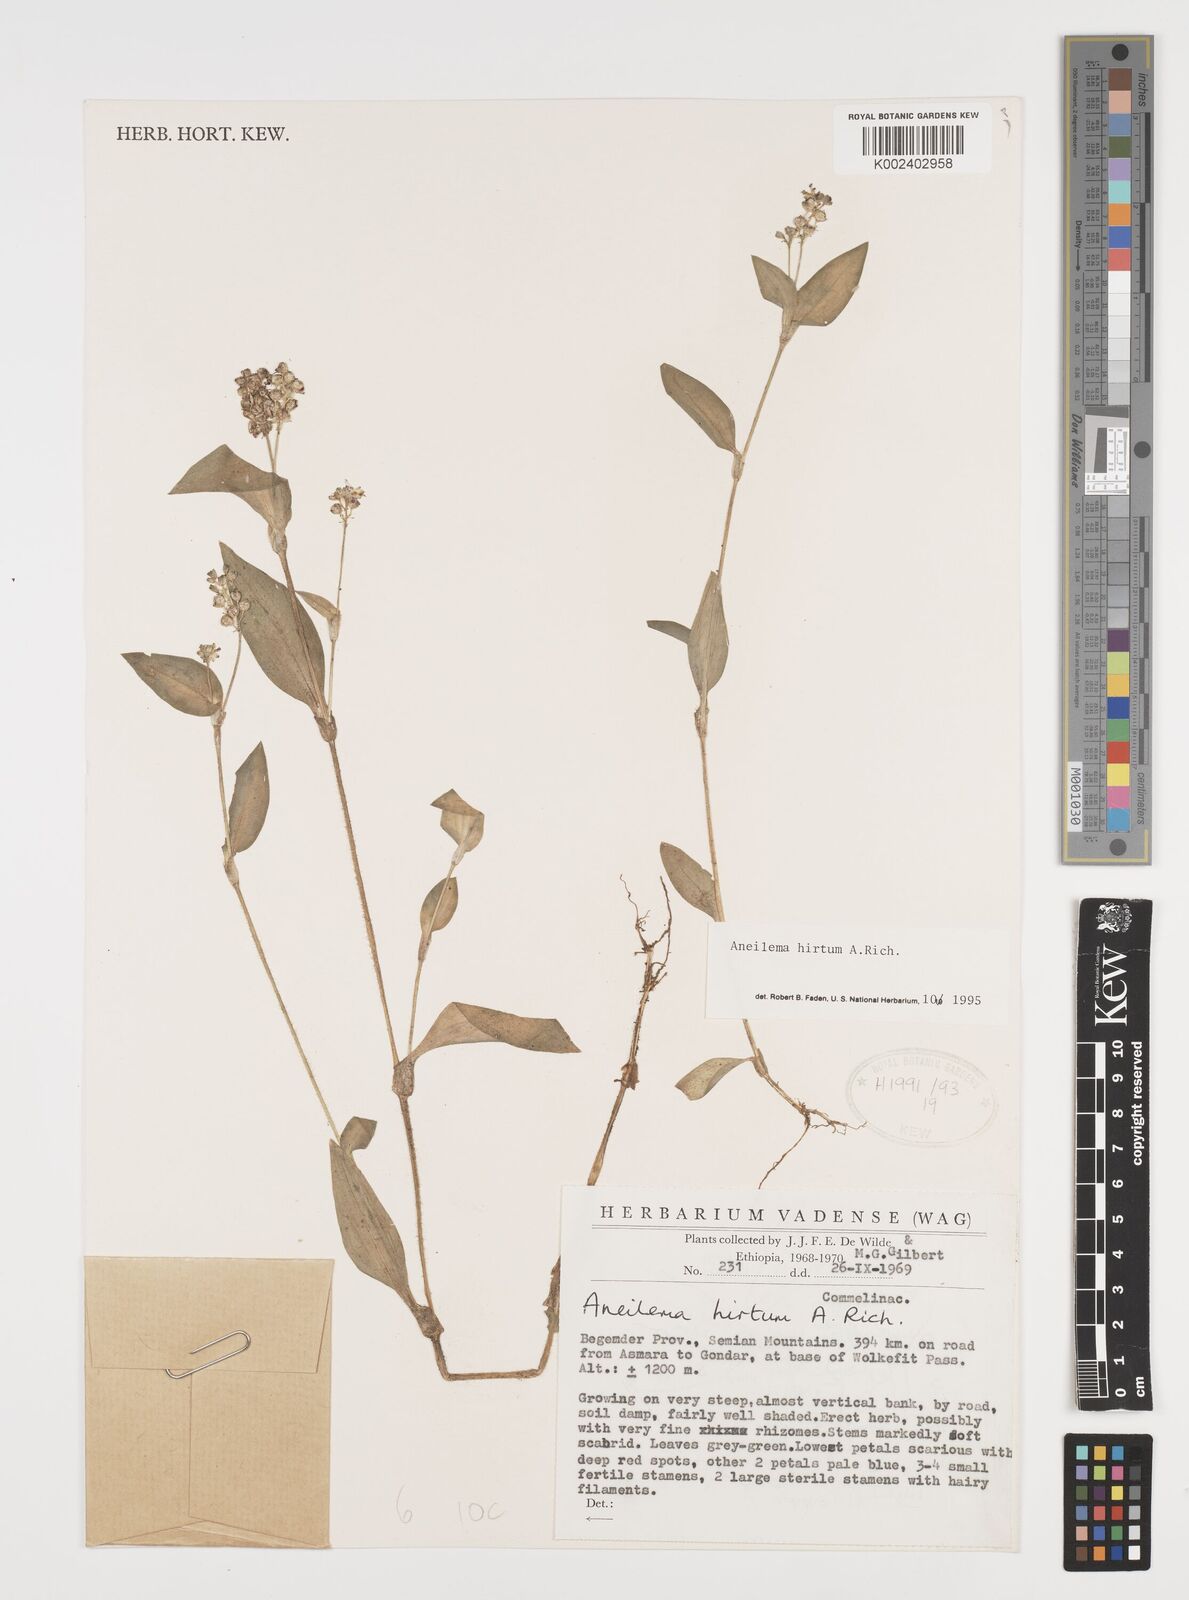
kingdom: Plantae
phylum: Tracheophyta
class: Liliopsida
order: Commelinales
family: Commelinaceae
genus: Aneilema
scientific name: Aneilema hirtum
